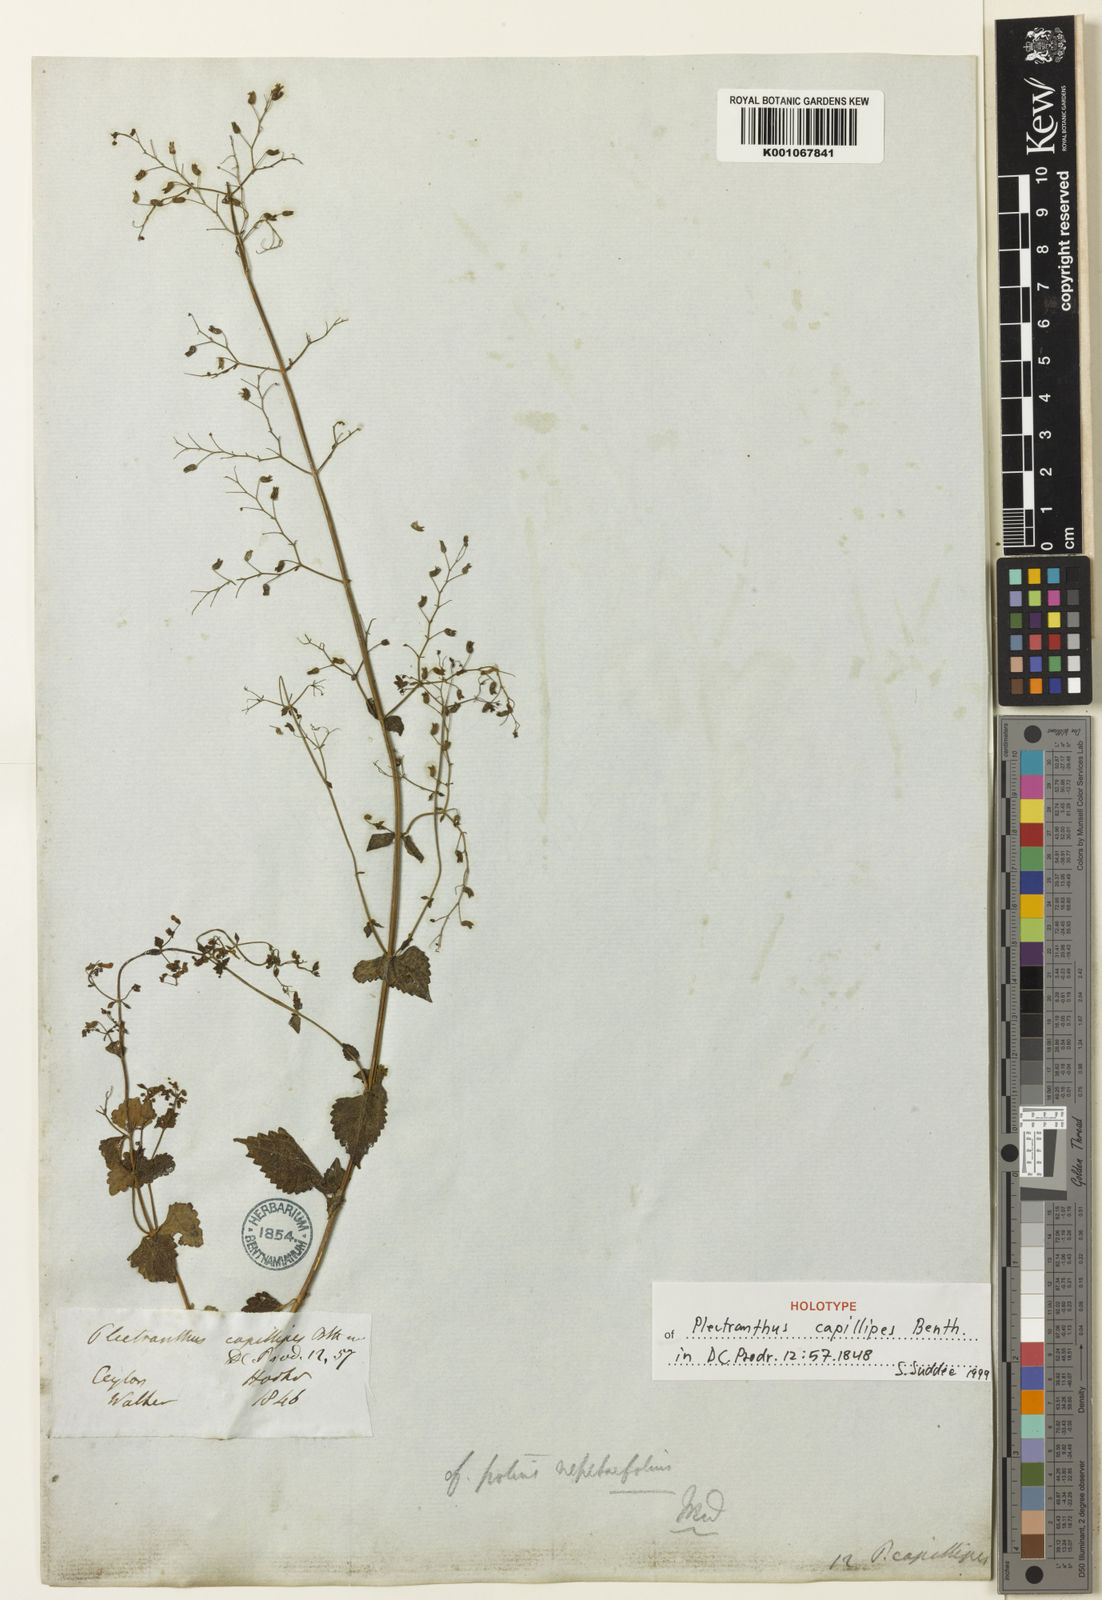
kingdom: Plantae
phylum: Tracheophyta
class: Magnoliopsida
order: Lamiales
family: Lamiaceae
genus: Isodon
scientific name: Isodon capillipes
